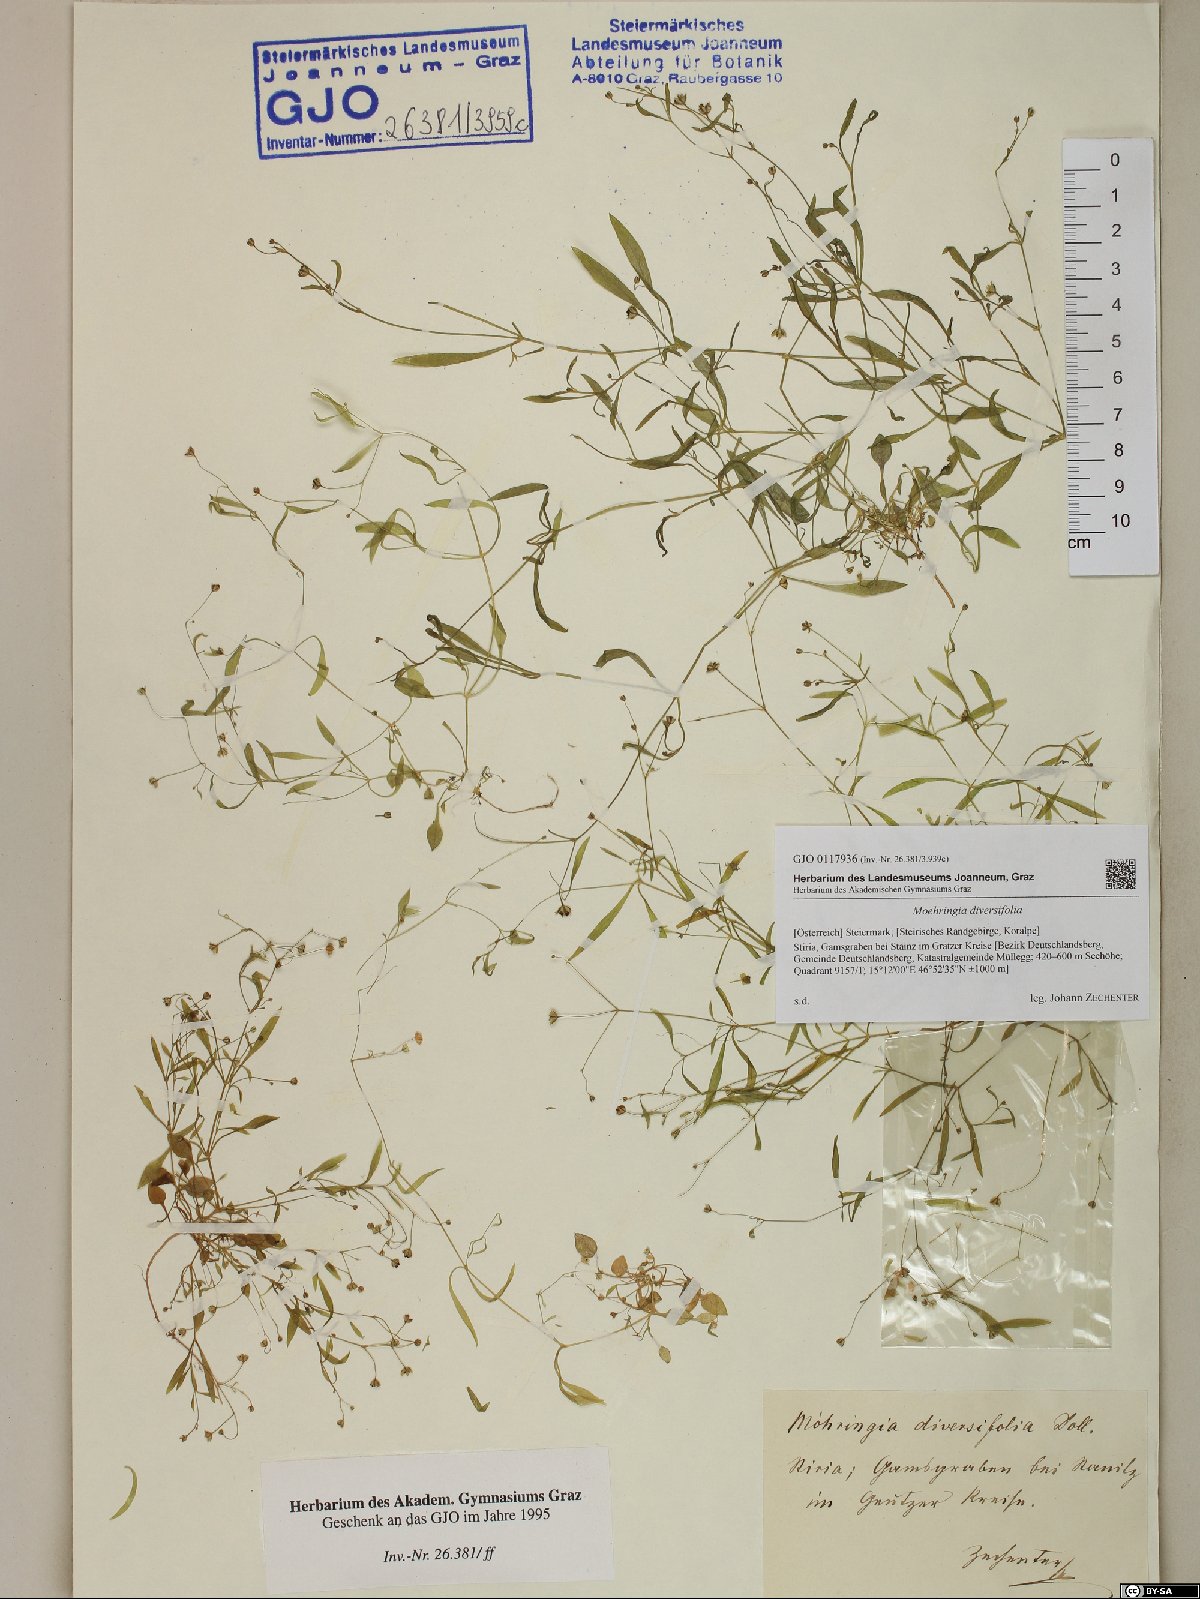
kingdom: Plantae
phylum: Tracheophyta
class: Magnoliopsida
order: Caryophyllales
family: Caryophyllaceae
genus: Moehringia
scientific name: Moehringia diversifolia
